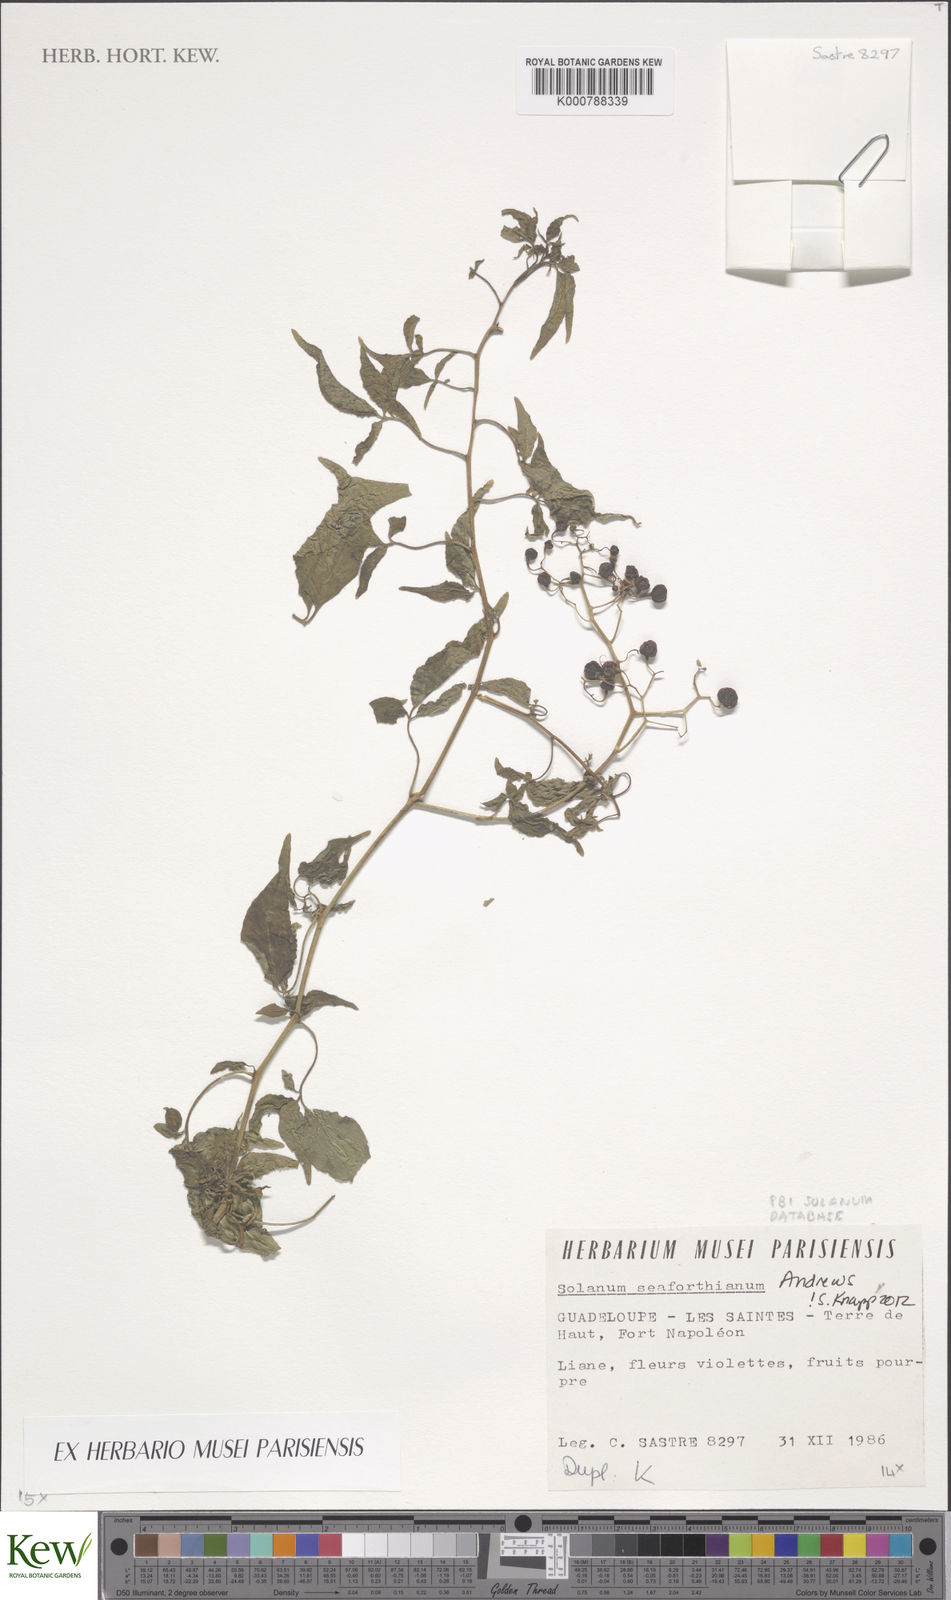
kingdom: Plantae
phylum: Tracheophyta
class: Magnoliopsida
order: Solanales
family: Solanaceae
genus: Solanum
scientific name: Solanum seaforthianum
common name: Brazilian nightshade
